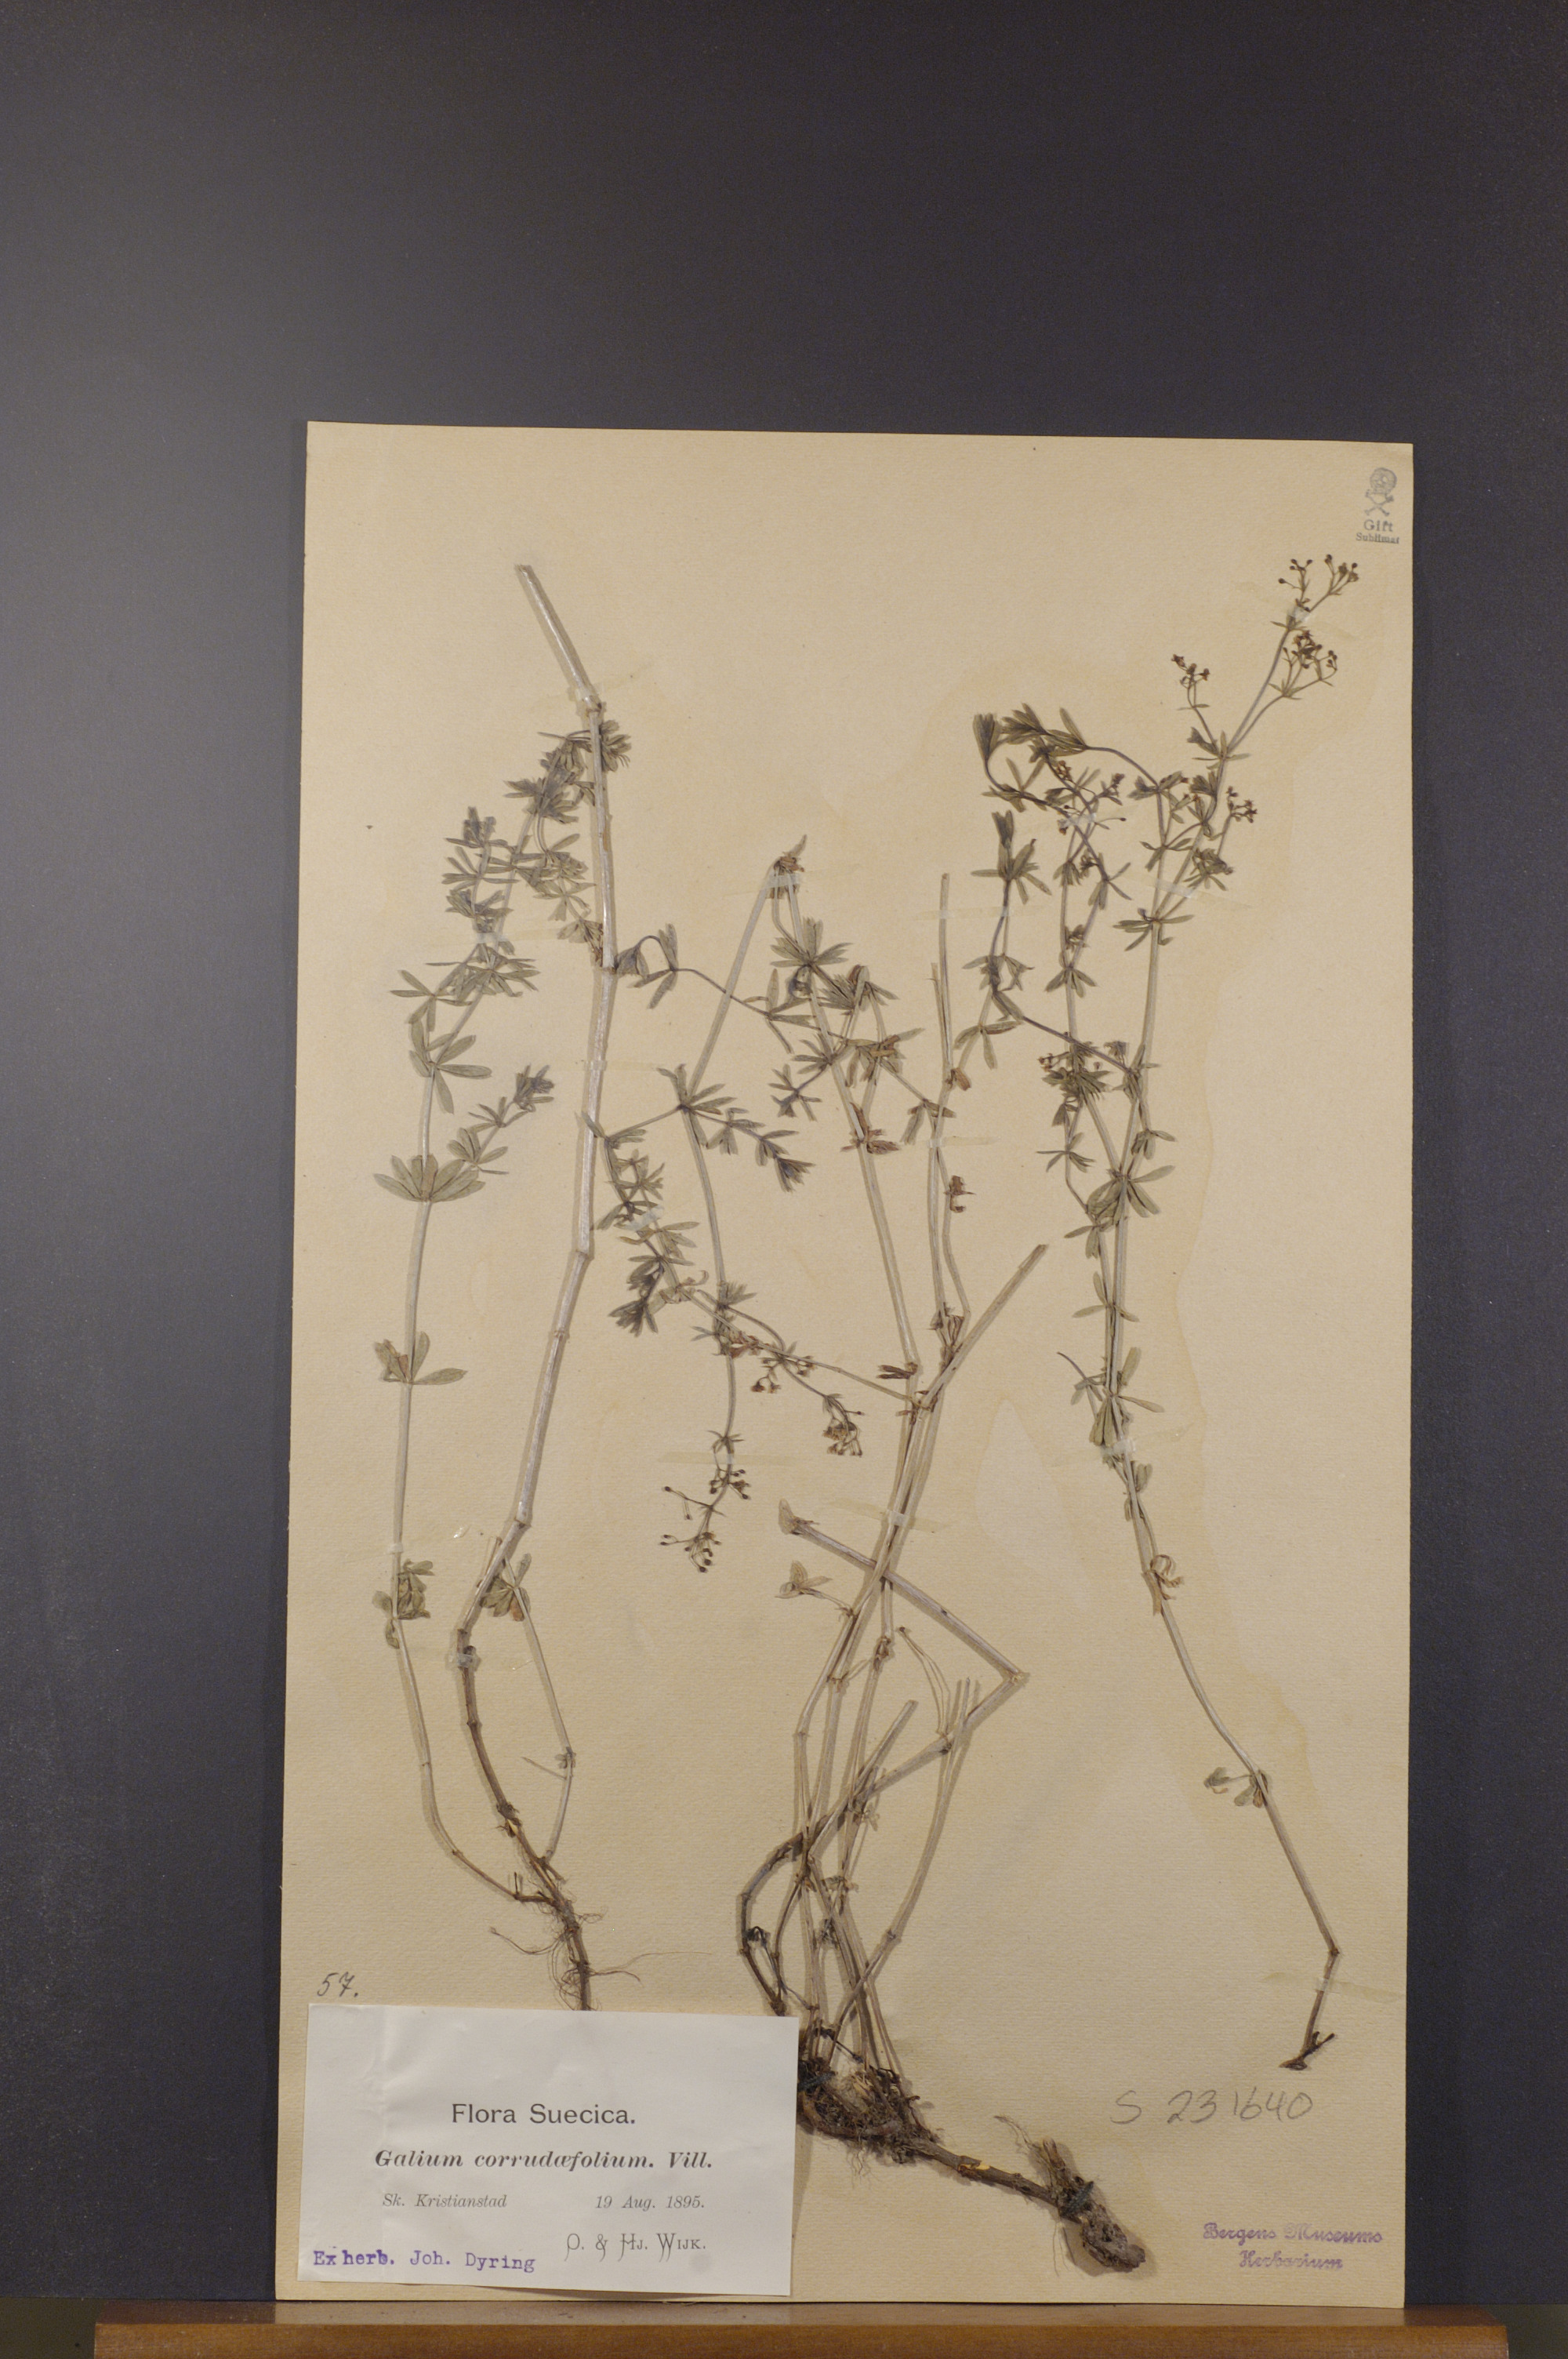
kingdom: Plantae
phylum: Tracheophyta
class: Magnoliopsida
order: Gentianales
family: Rubiaceae
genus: Galium
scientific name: Galium album
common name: White bedstraw
